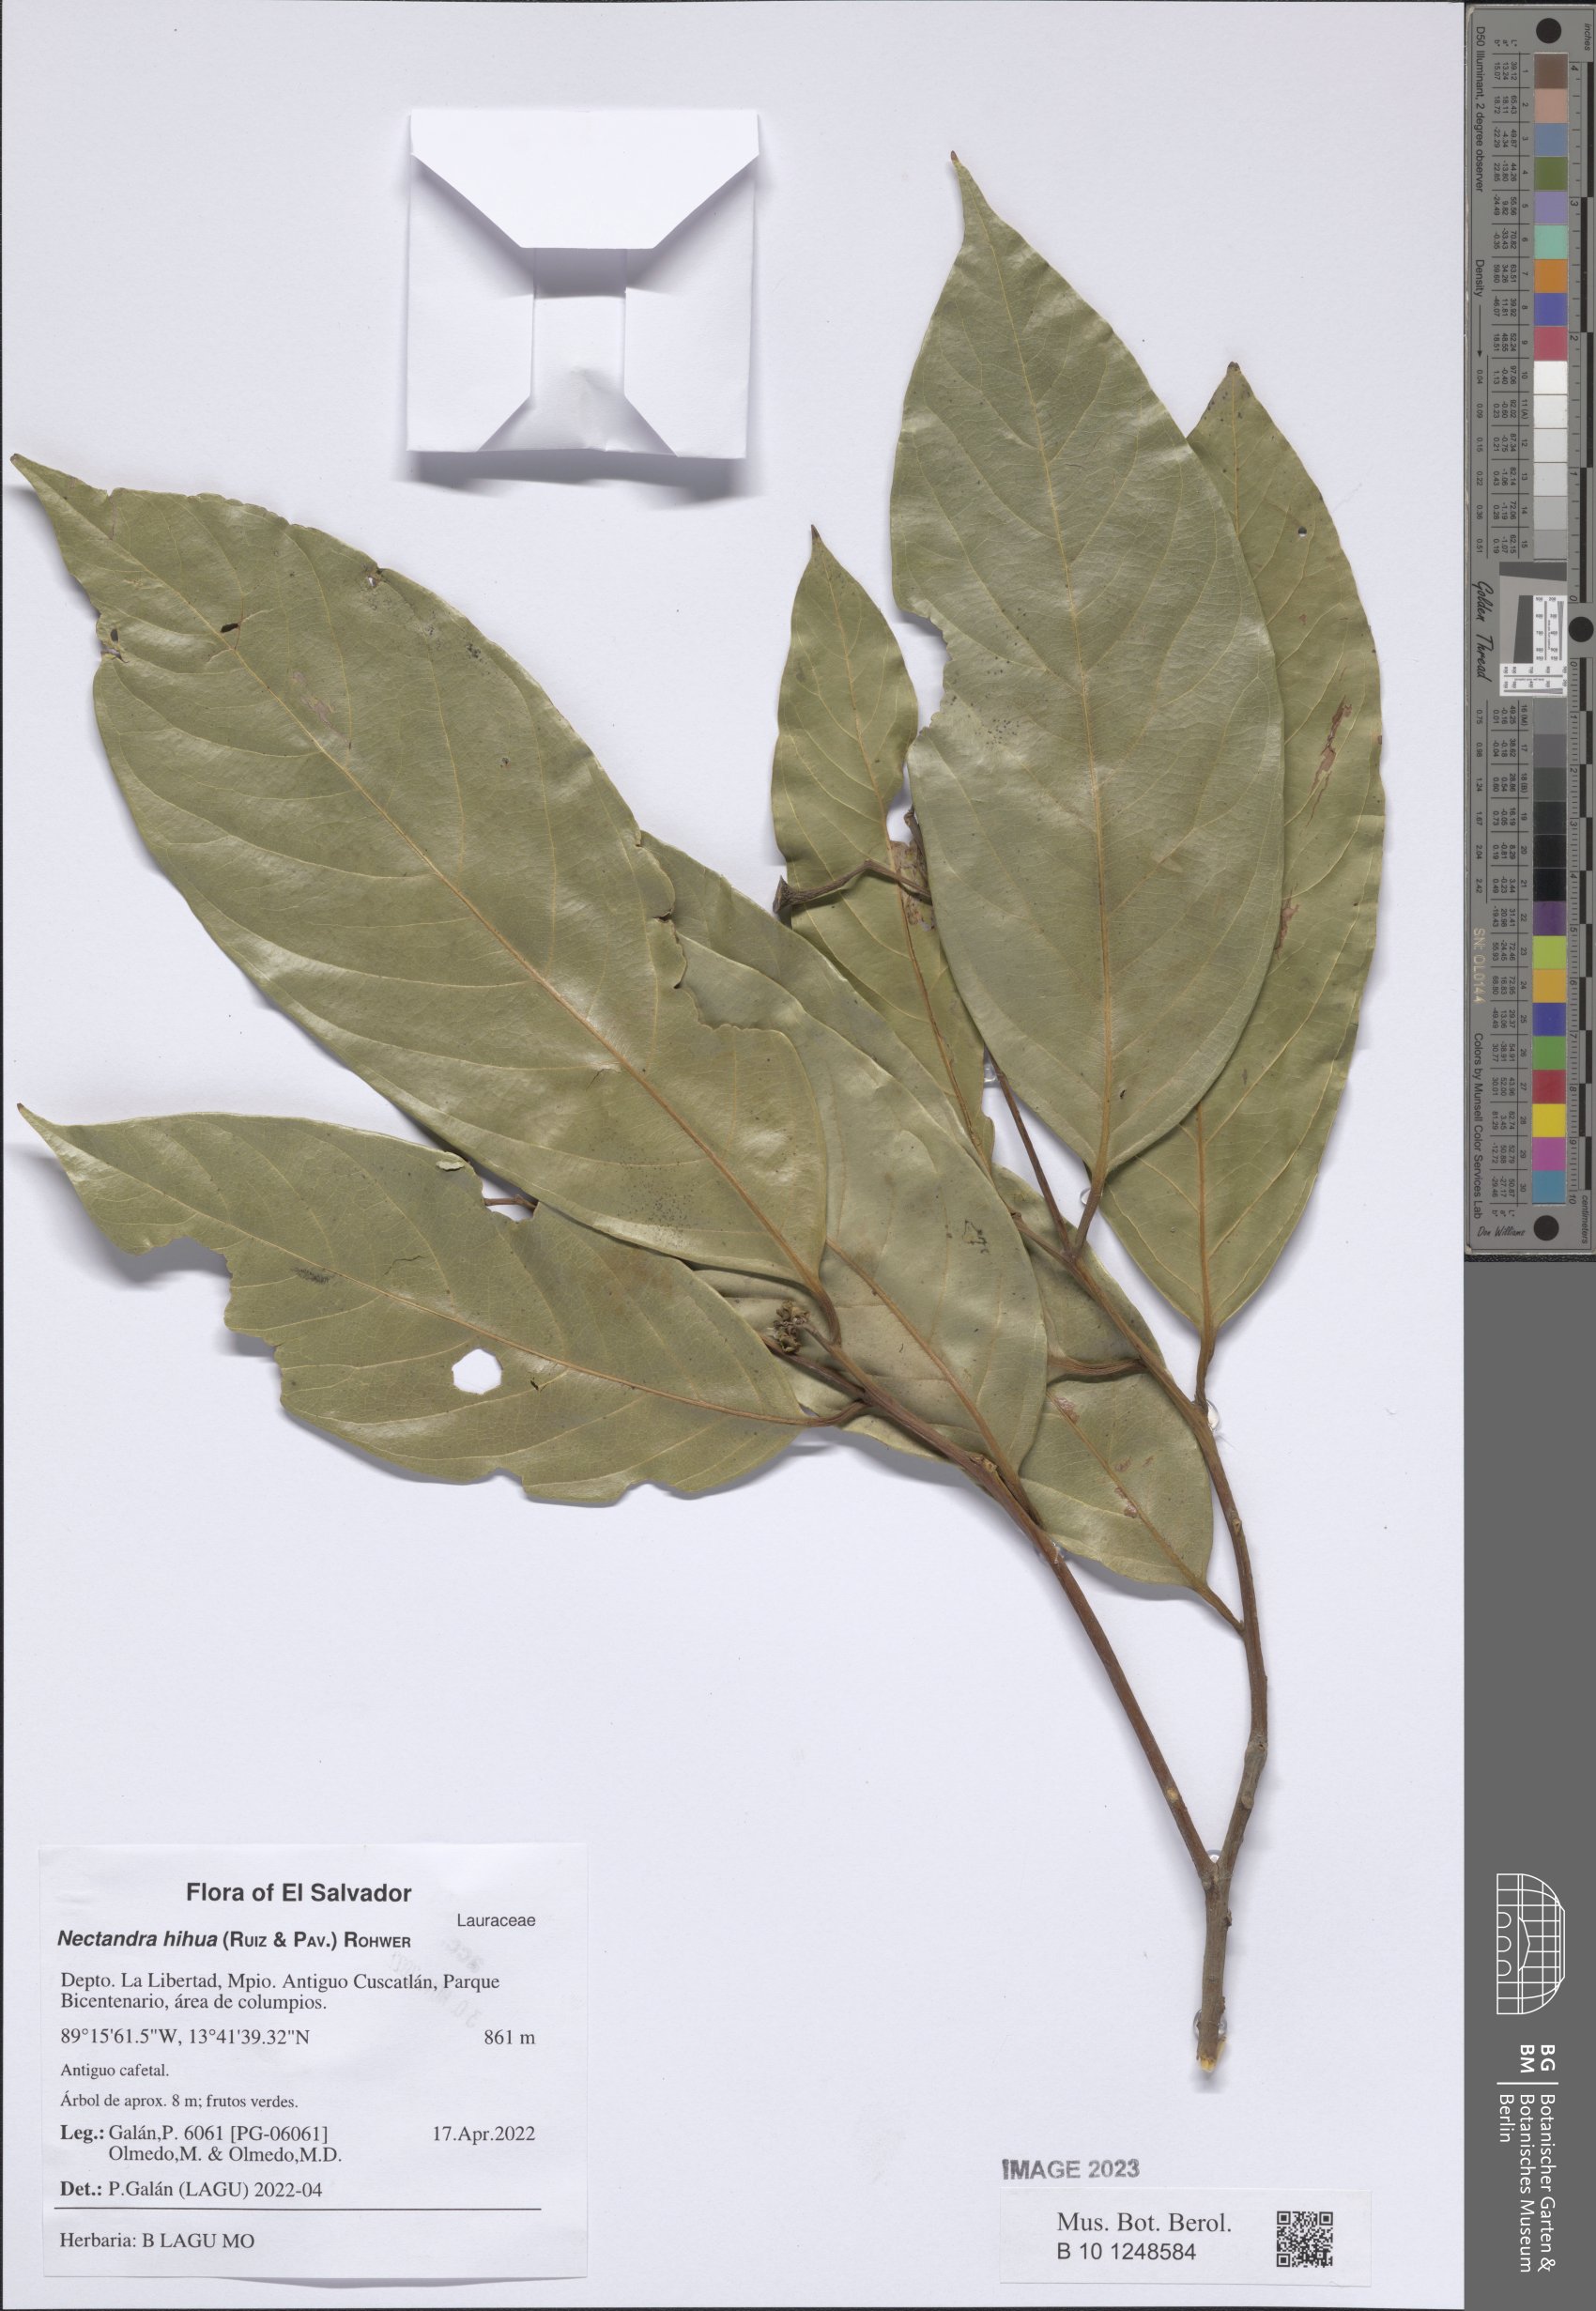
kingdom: Plantae
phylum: Tracheophyta
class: Magnoliopsida
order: Laurales
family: Lauraceae
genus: Nectandra
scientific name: Nectandra hihua
